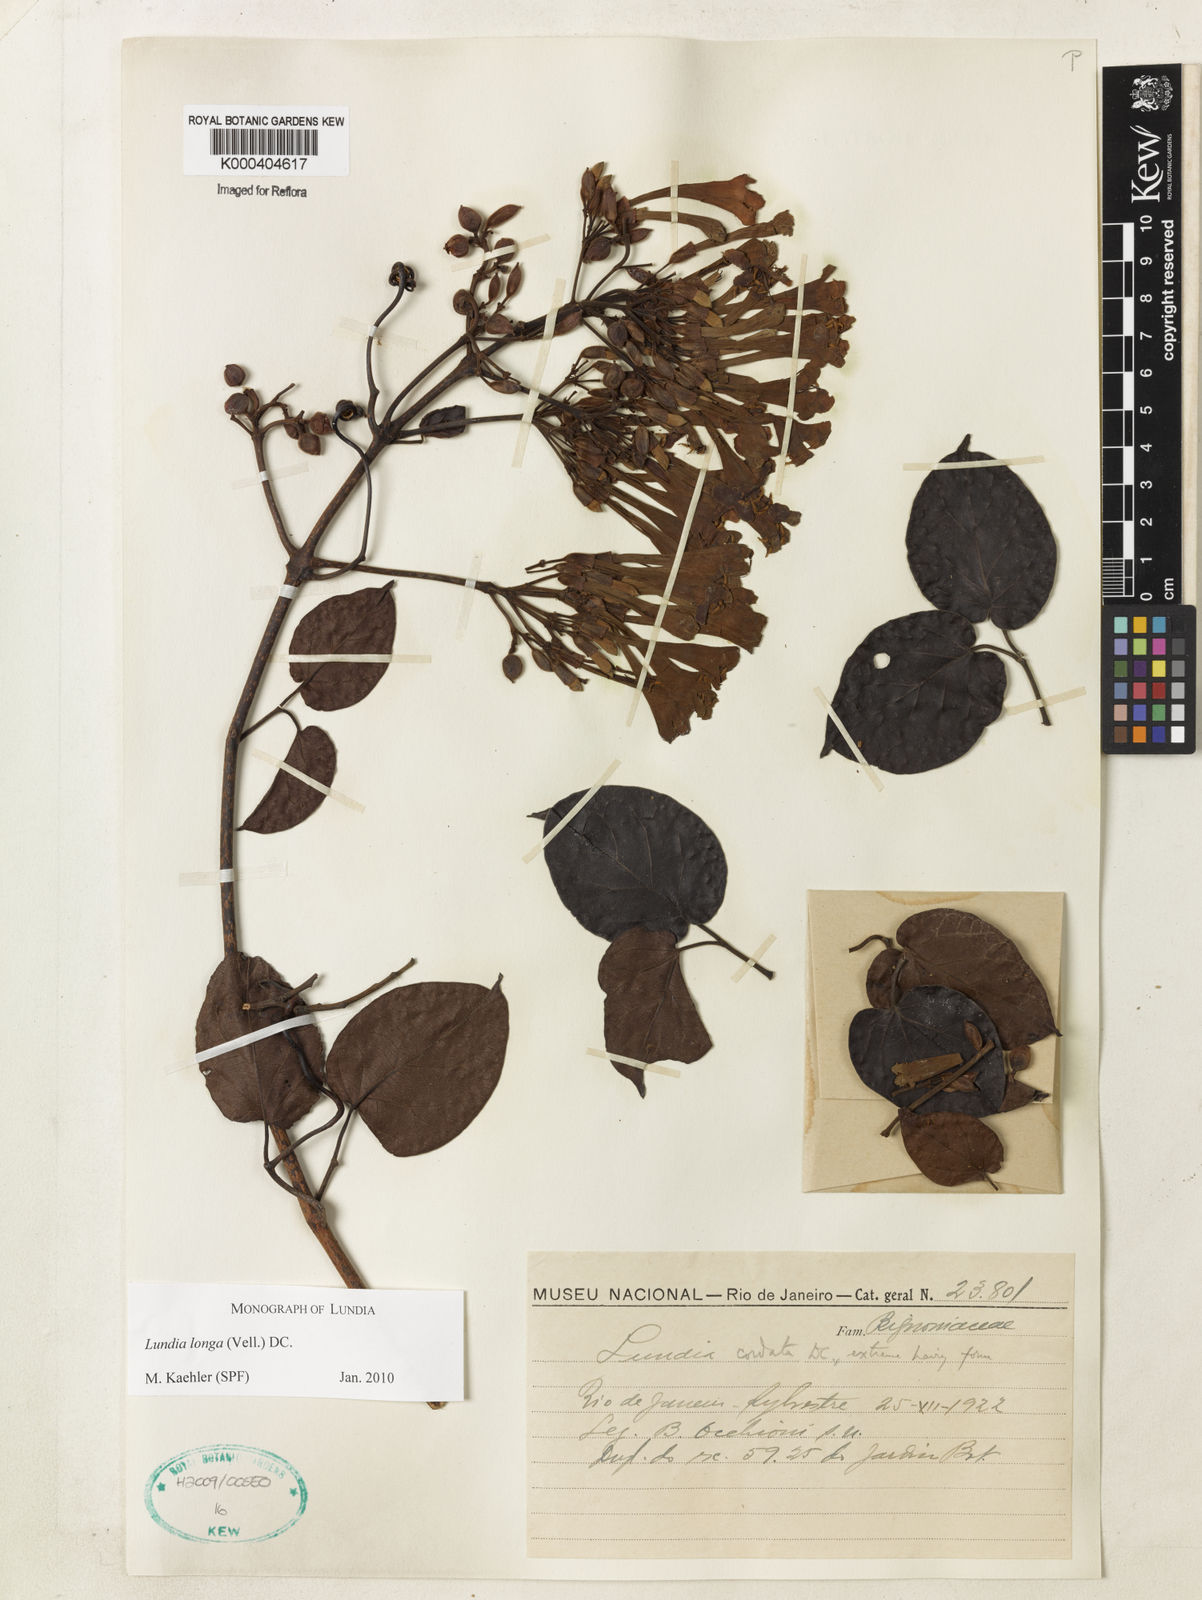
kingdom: Plantae
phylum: Tracheophyta
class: Magnoliopsida
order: Lamiales
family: Bignoniaceae
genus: Lundia
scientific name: Lundia longa
